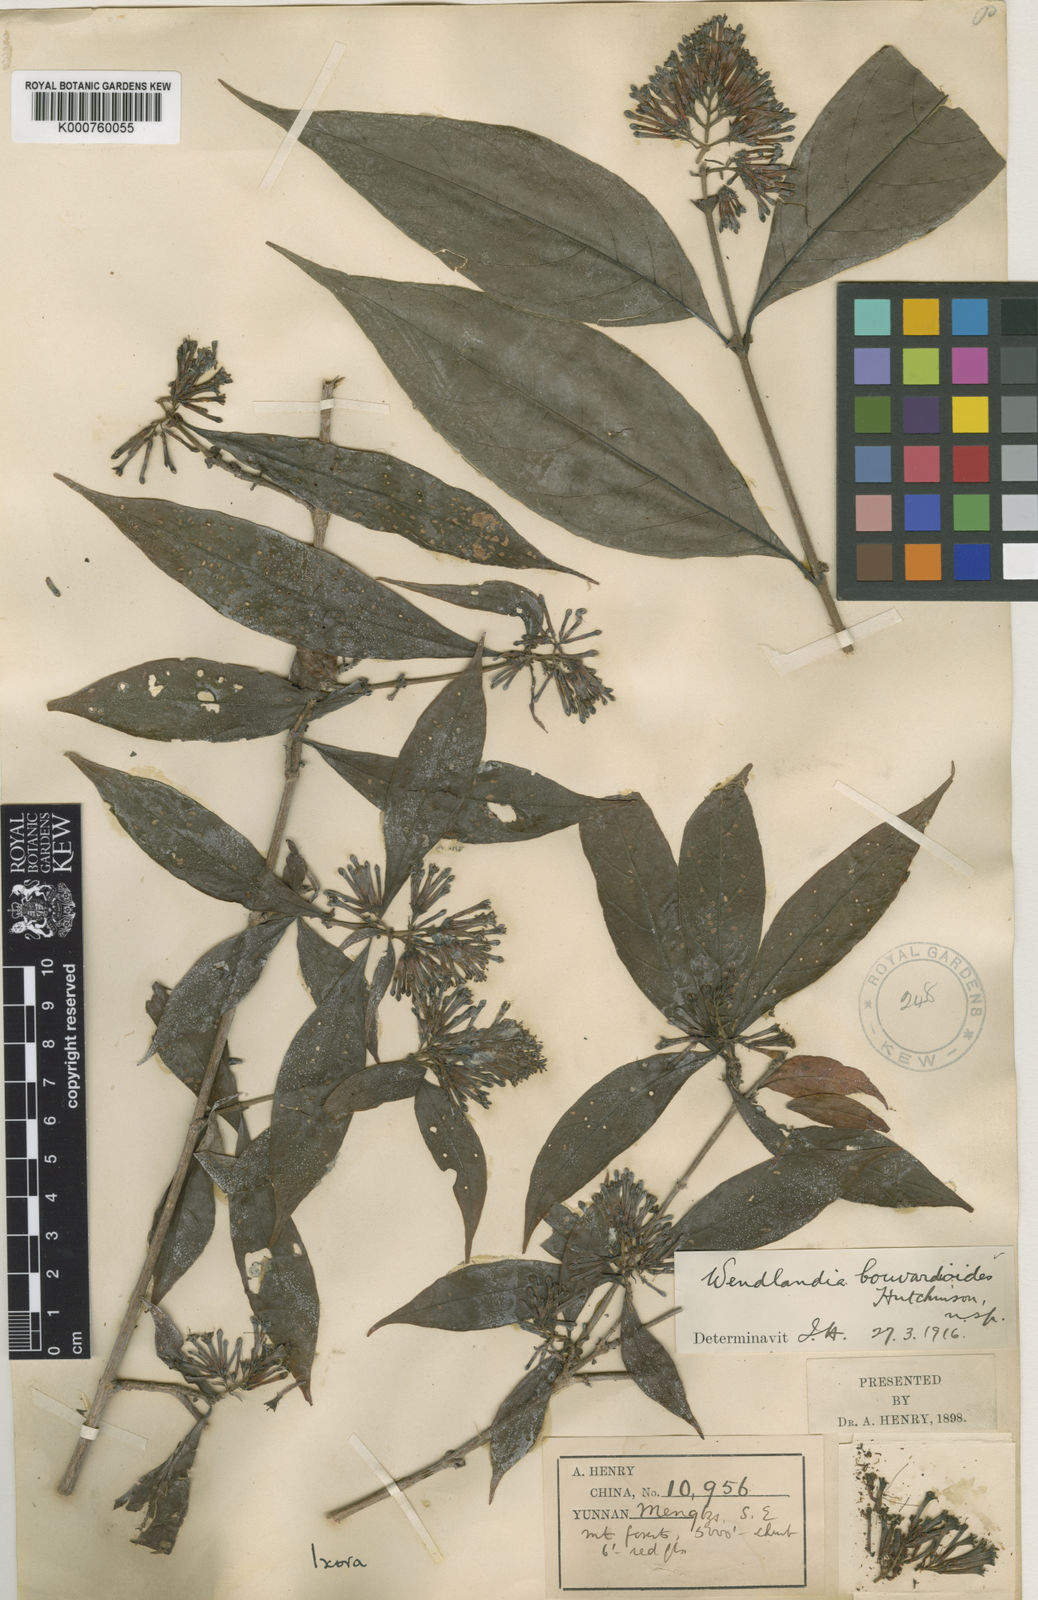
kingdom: Plantae
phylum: Tracheophyta
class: Magnoliopsida
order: Gentianales
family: Rubiaceae
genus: Wendlandia
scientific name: Wendlandia bouvardioides
